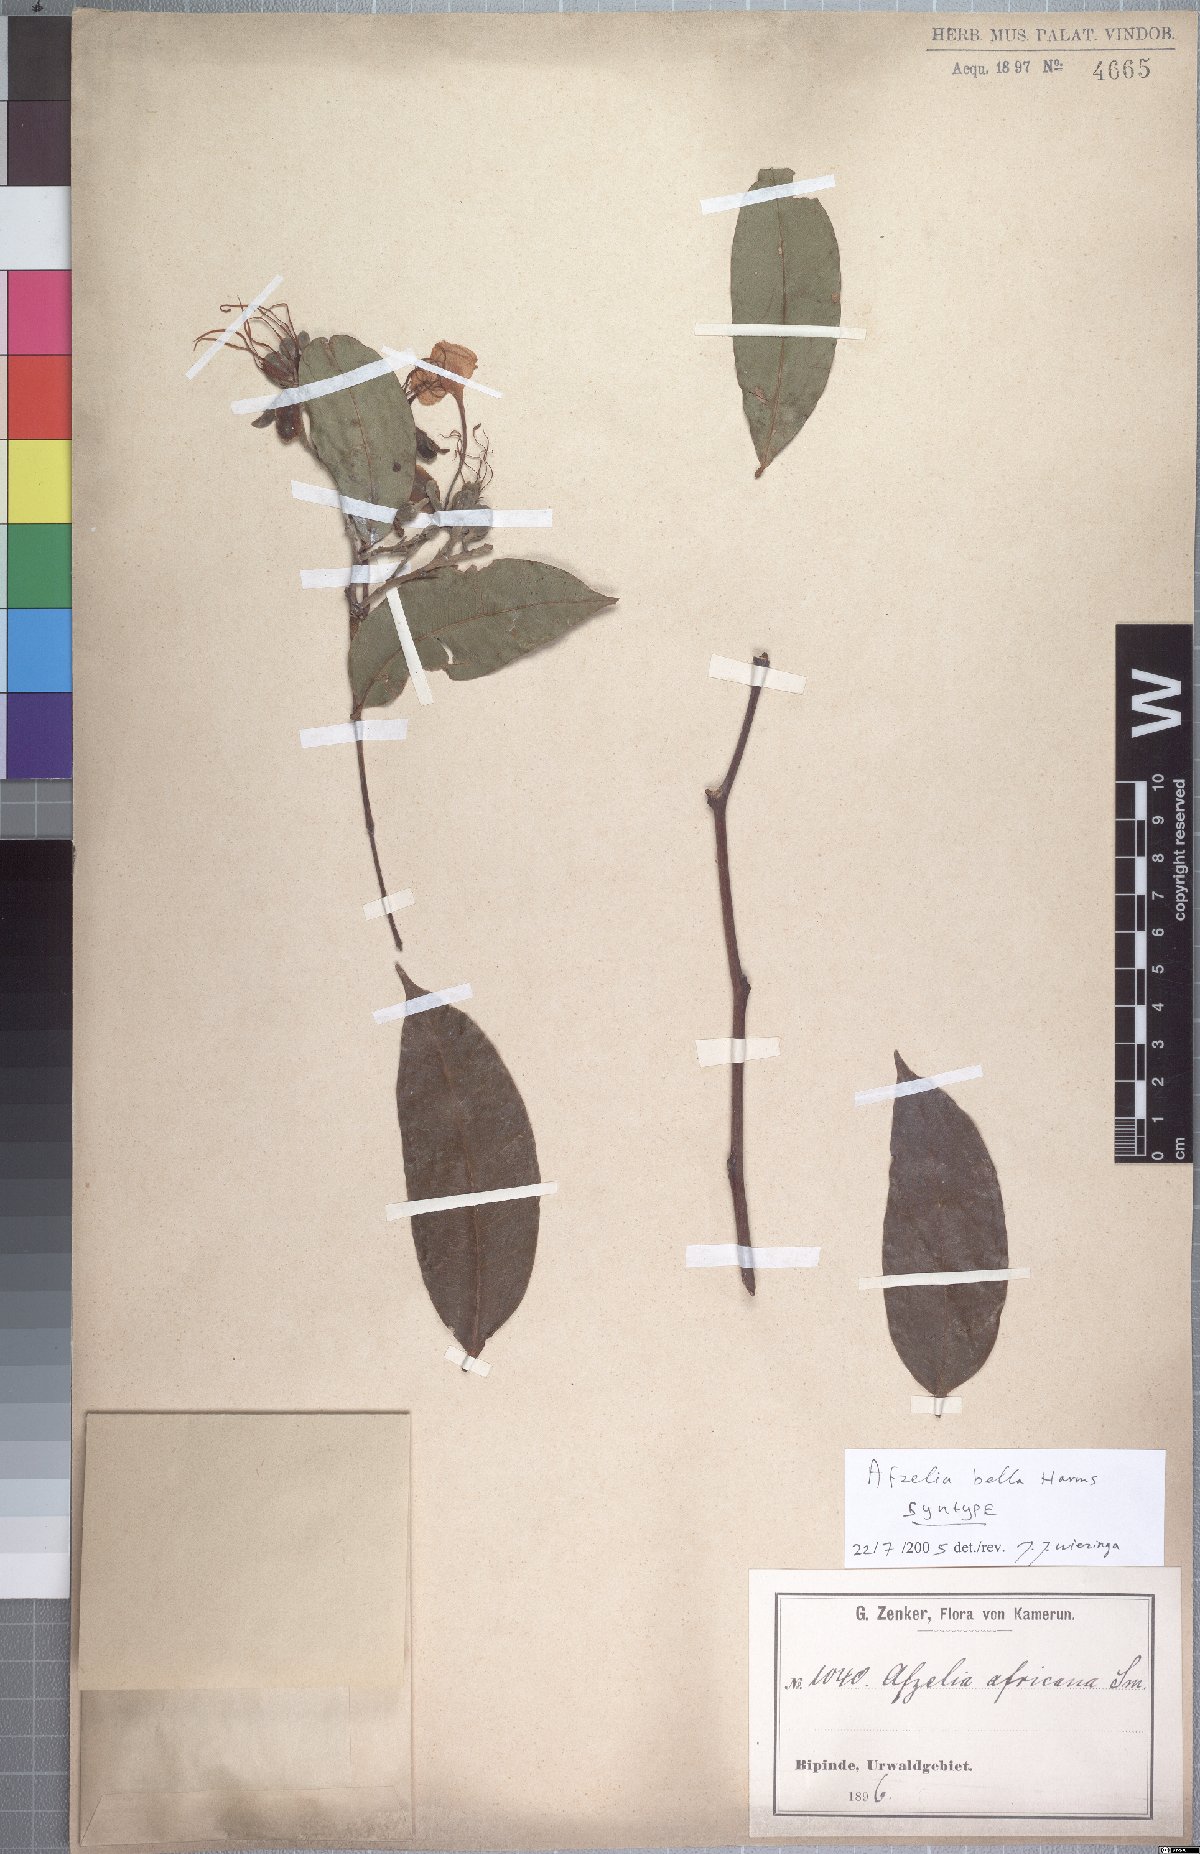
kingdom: Plantae
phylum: Tracheophyta
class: Magnoliopsida
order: Fabales
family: Fabaceae
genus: Afzelia
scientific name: Afzelia bella
